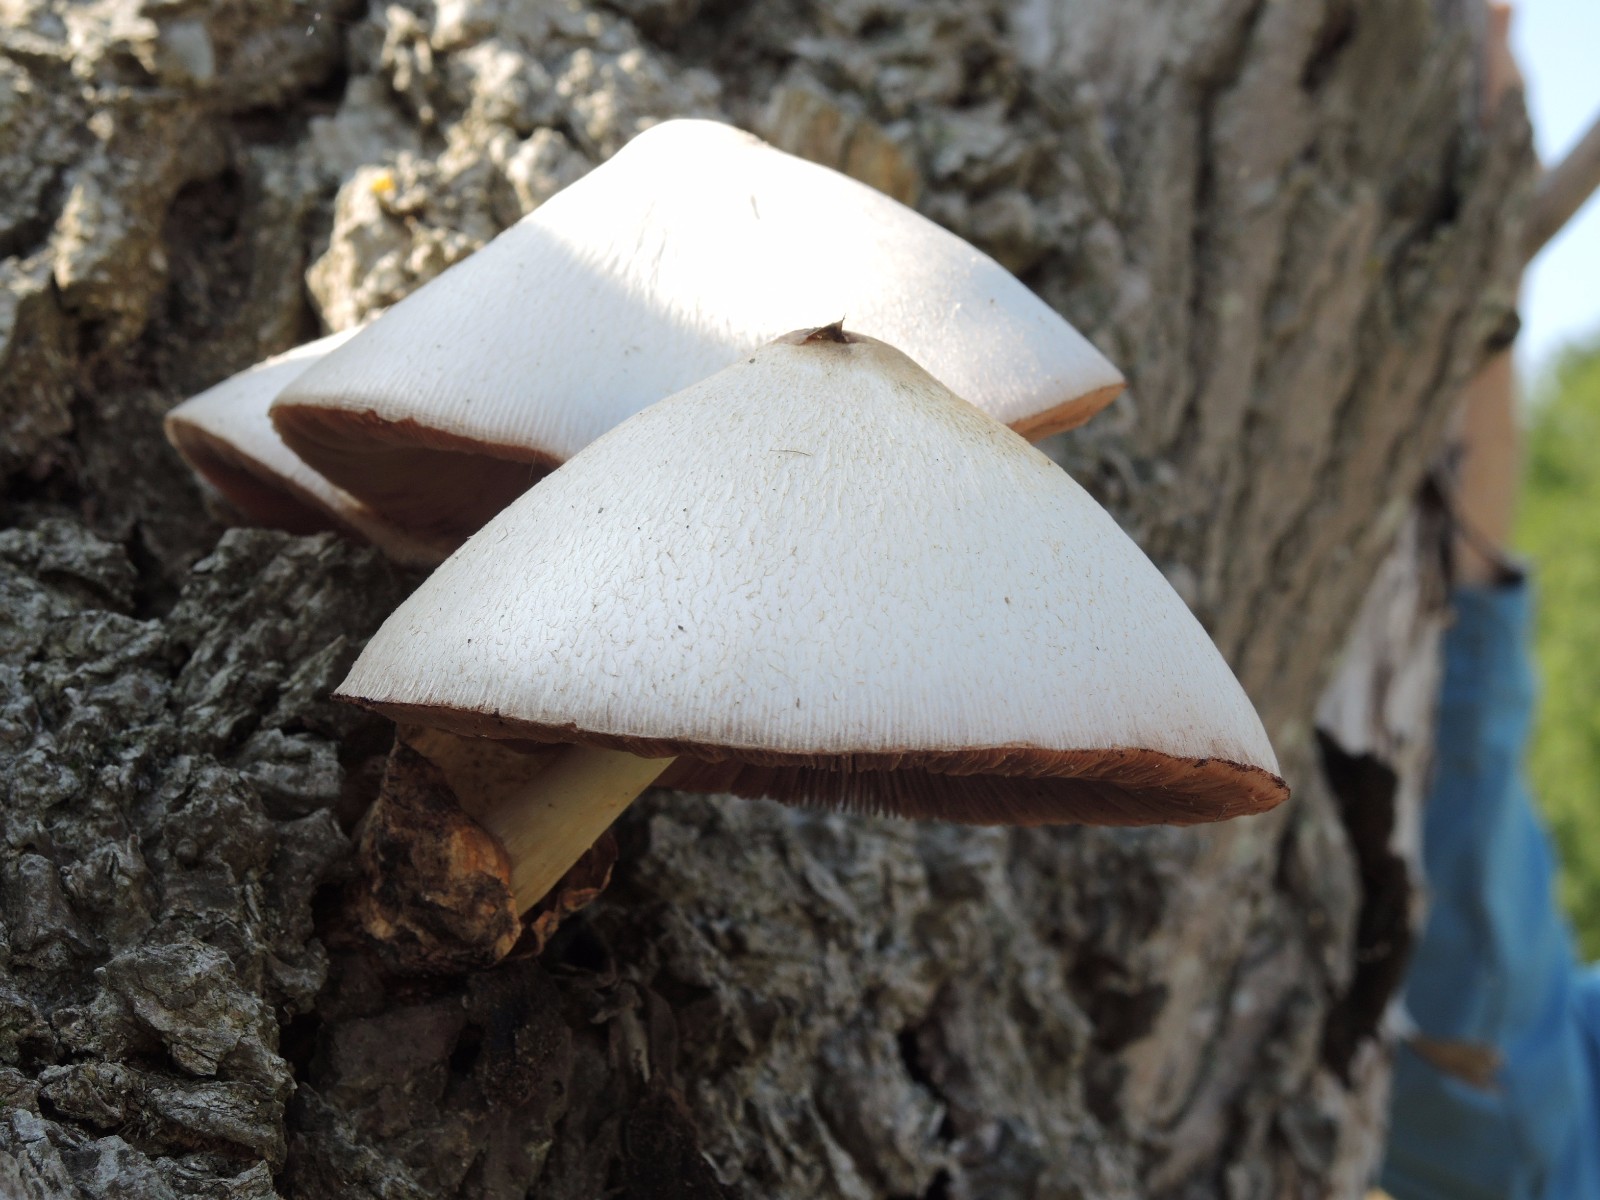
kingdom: Fungi
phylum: Basidiomycota
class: Agaricomycetes
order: Agaricales
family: Pluteaceae
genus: Volvariella
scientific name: Volvariella bombycina
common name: silkehåret posesvamp
